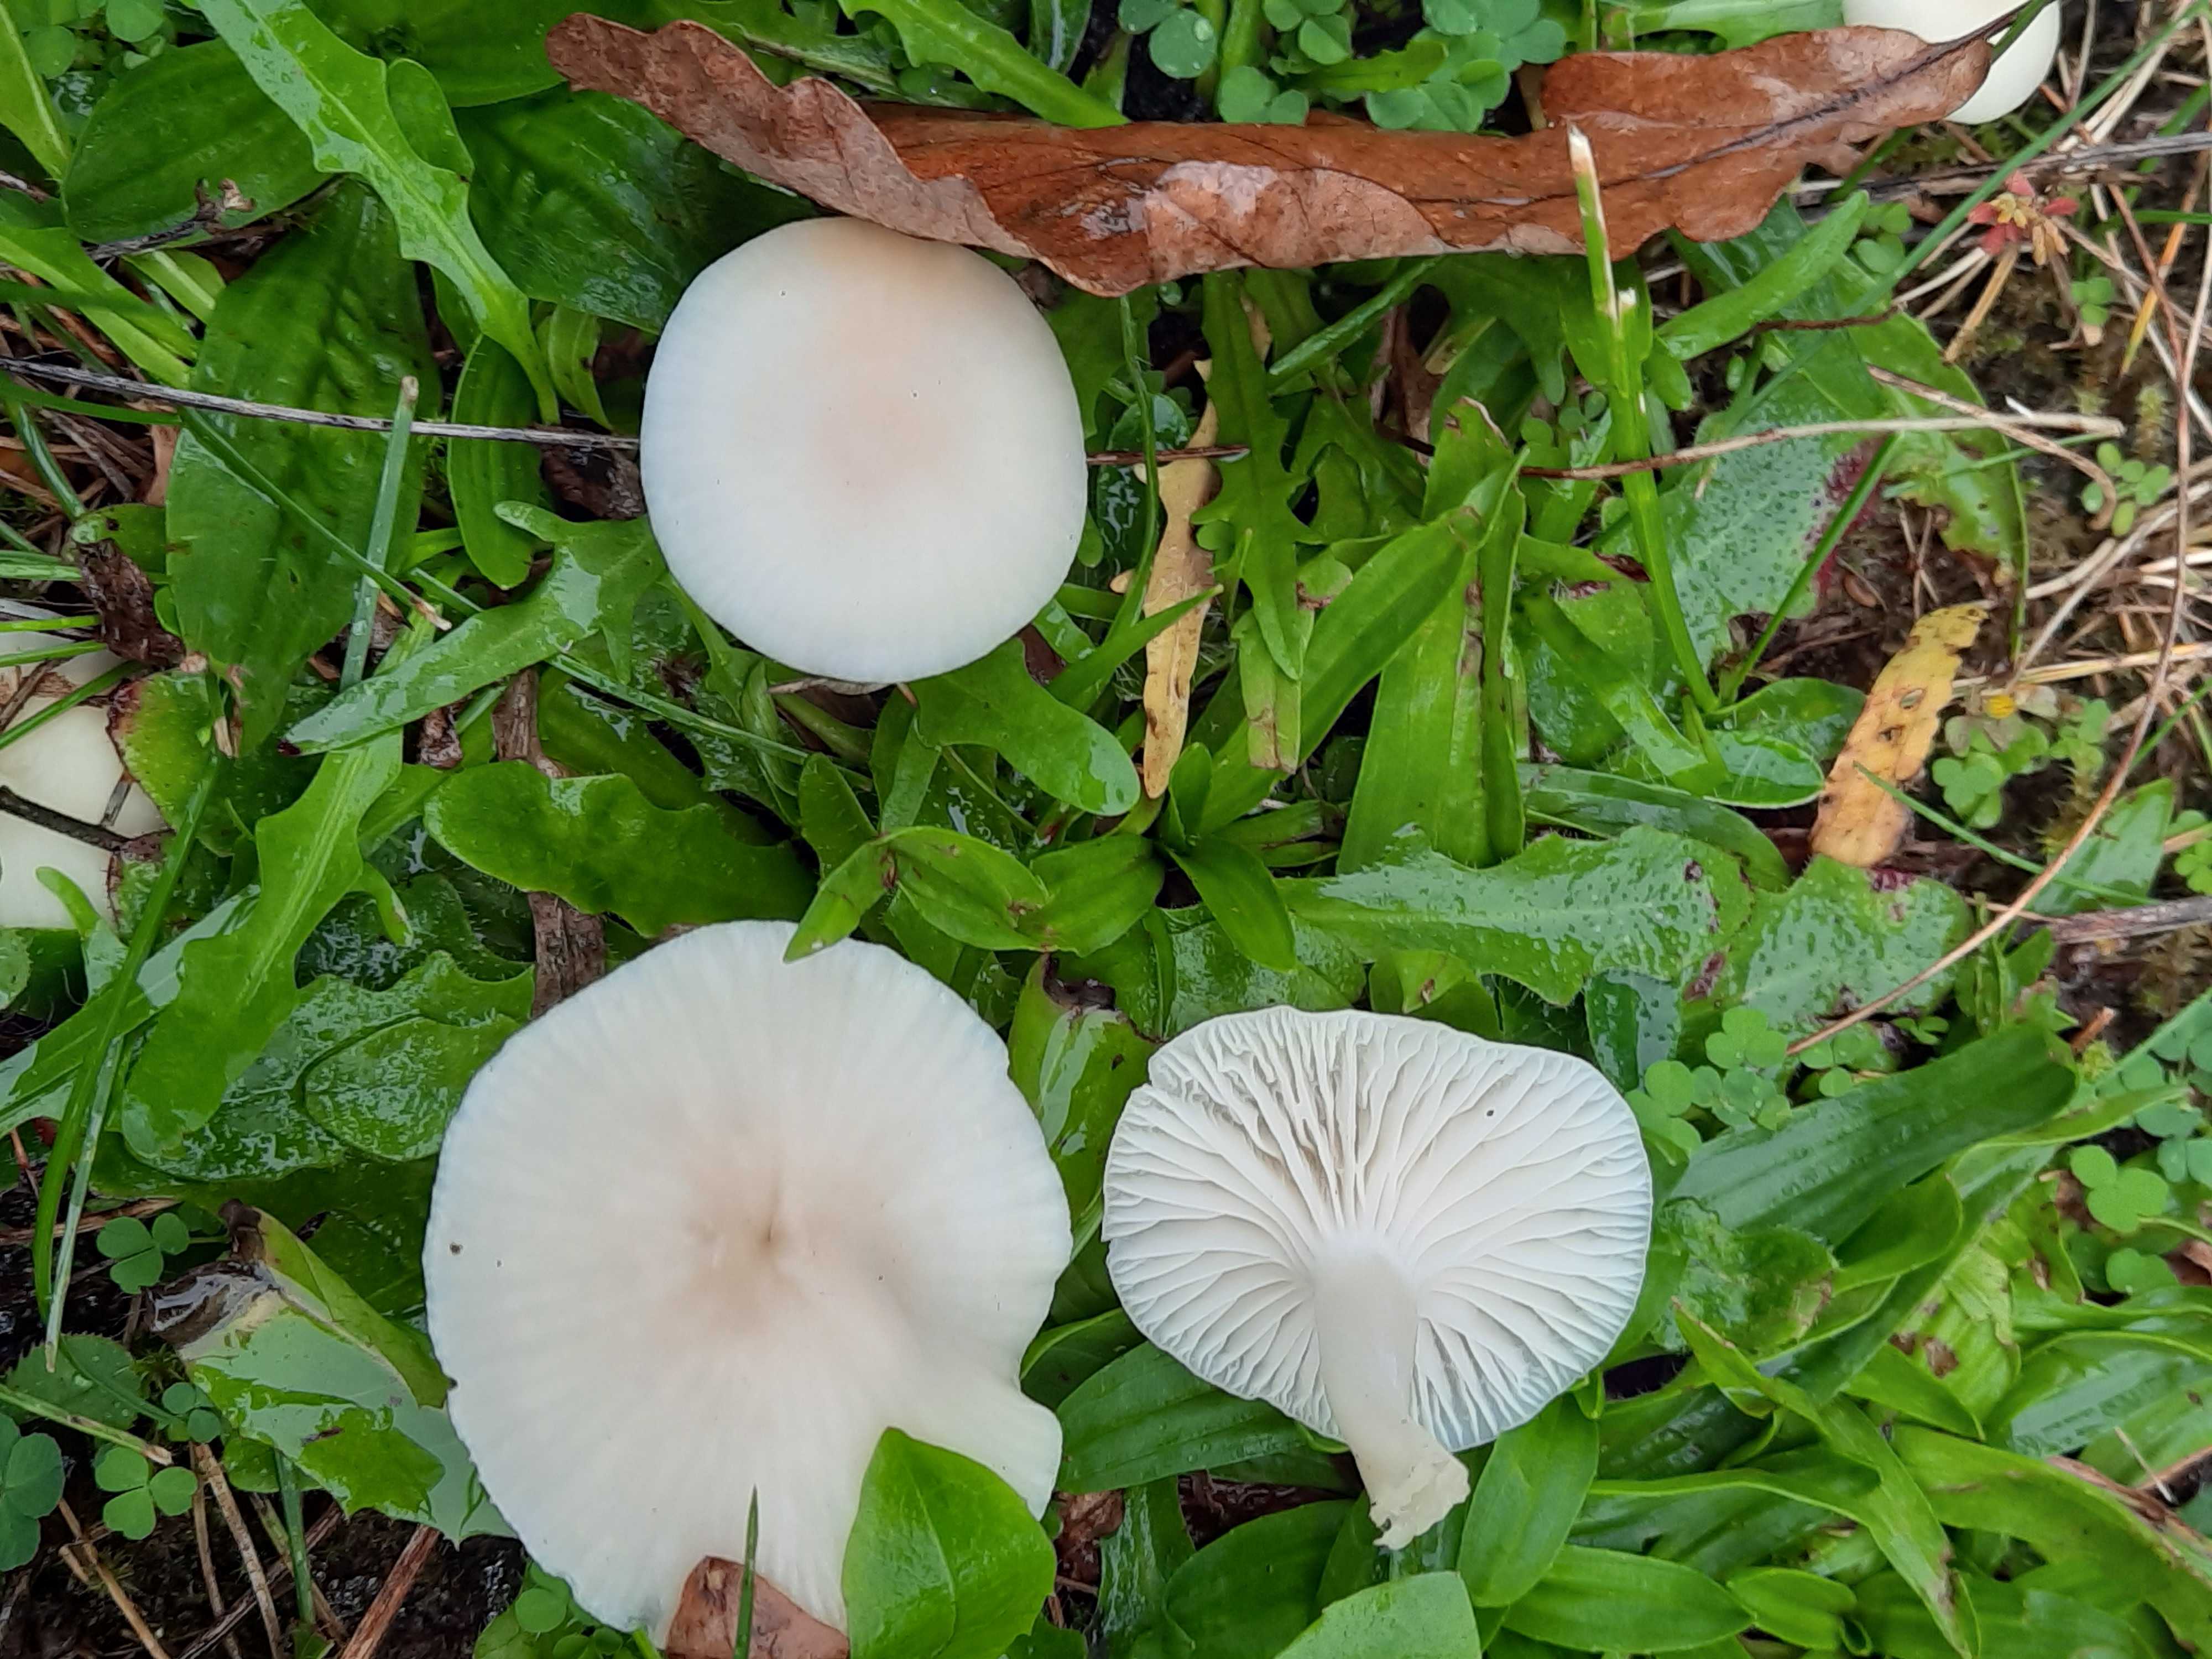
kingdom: Fungi
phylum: Basidiomycota
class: Agaricomycetes
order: Agaricales
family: Hygrophoraceae
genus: Cuphophyllus
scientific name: Cuphophyllus virgineus
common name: snehvid vokshat
